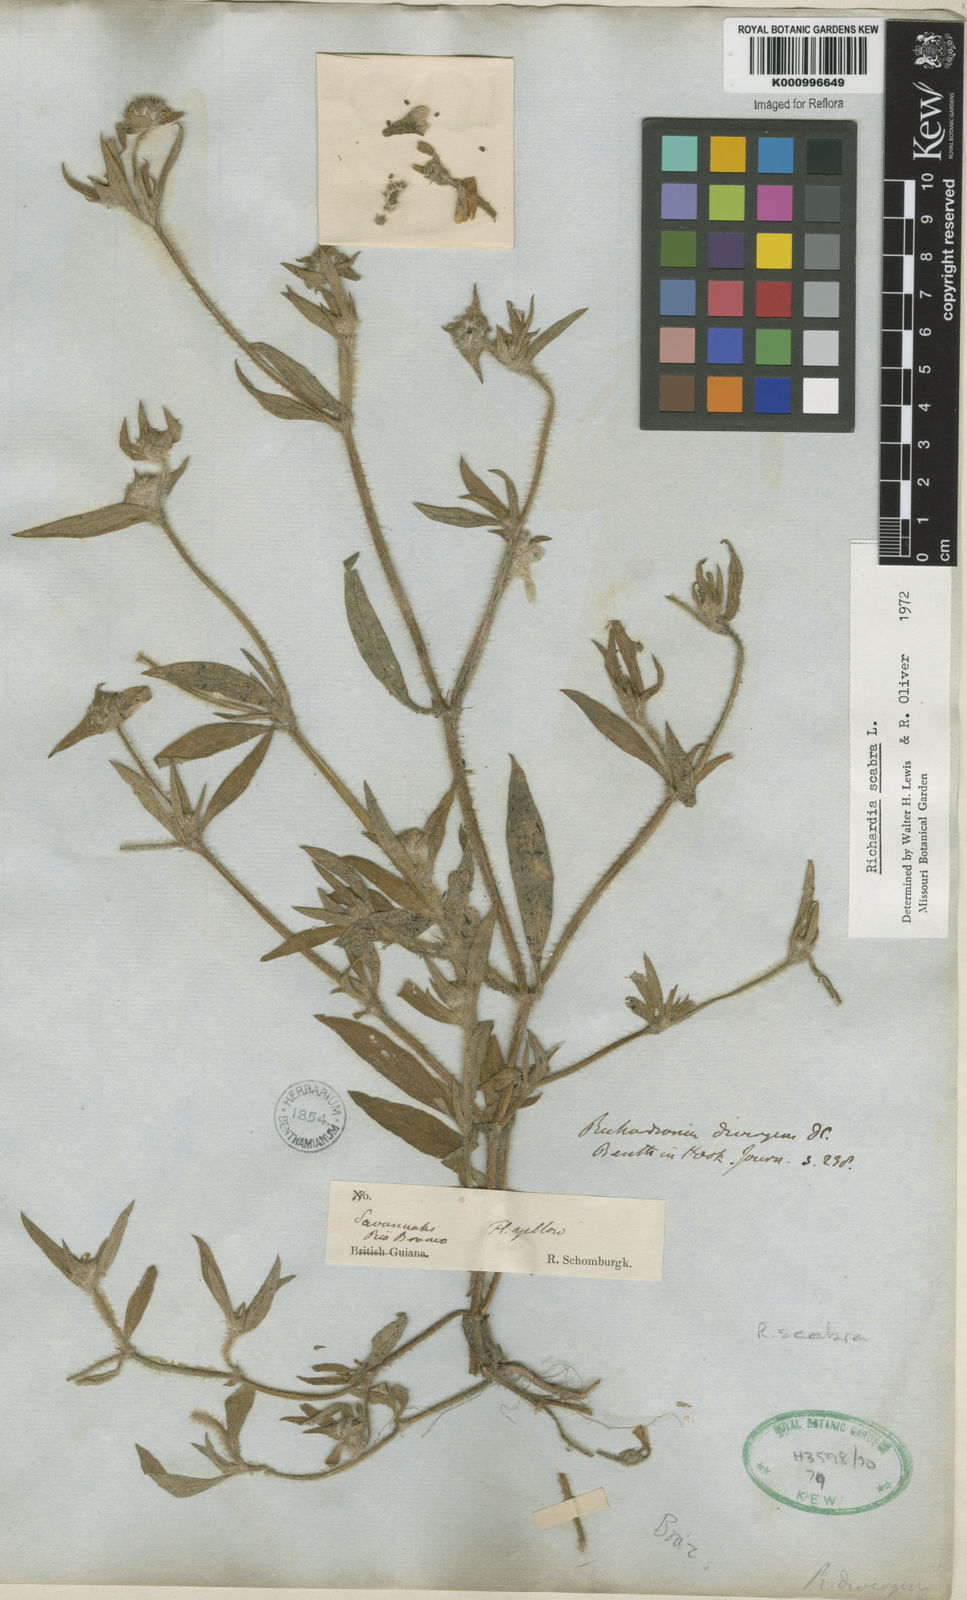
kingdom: Plantae
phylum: Tracheophyta
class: Magnoliopsida
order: Gentianales
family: Rubiaceae
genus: Richardia
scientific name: Richardia scabra
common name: Rough mexican clover
